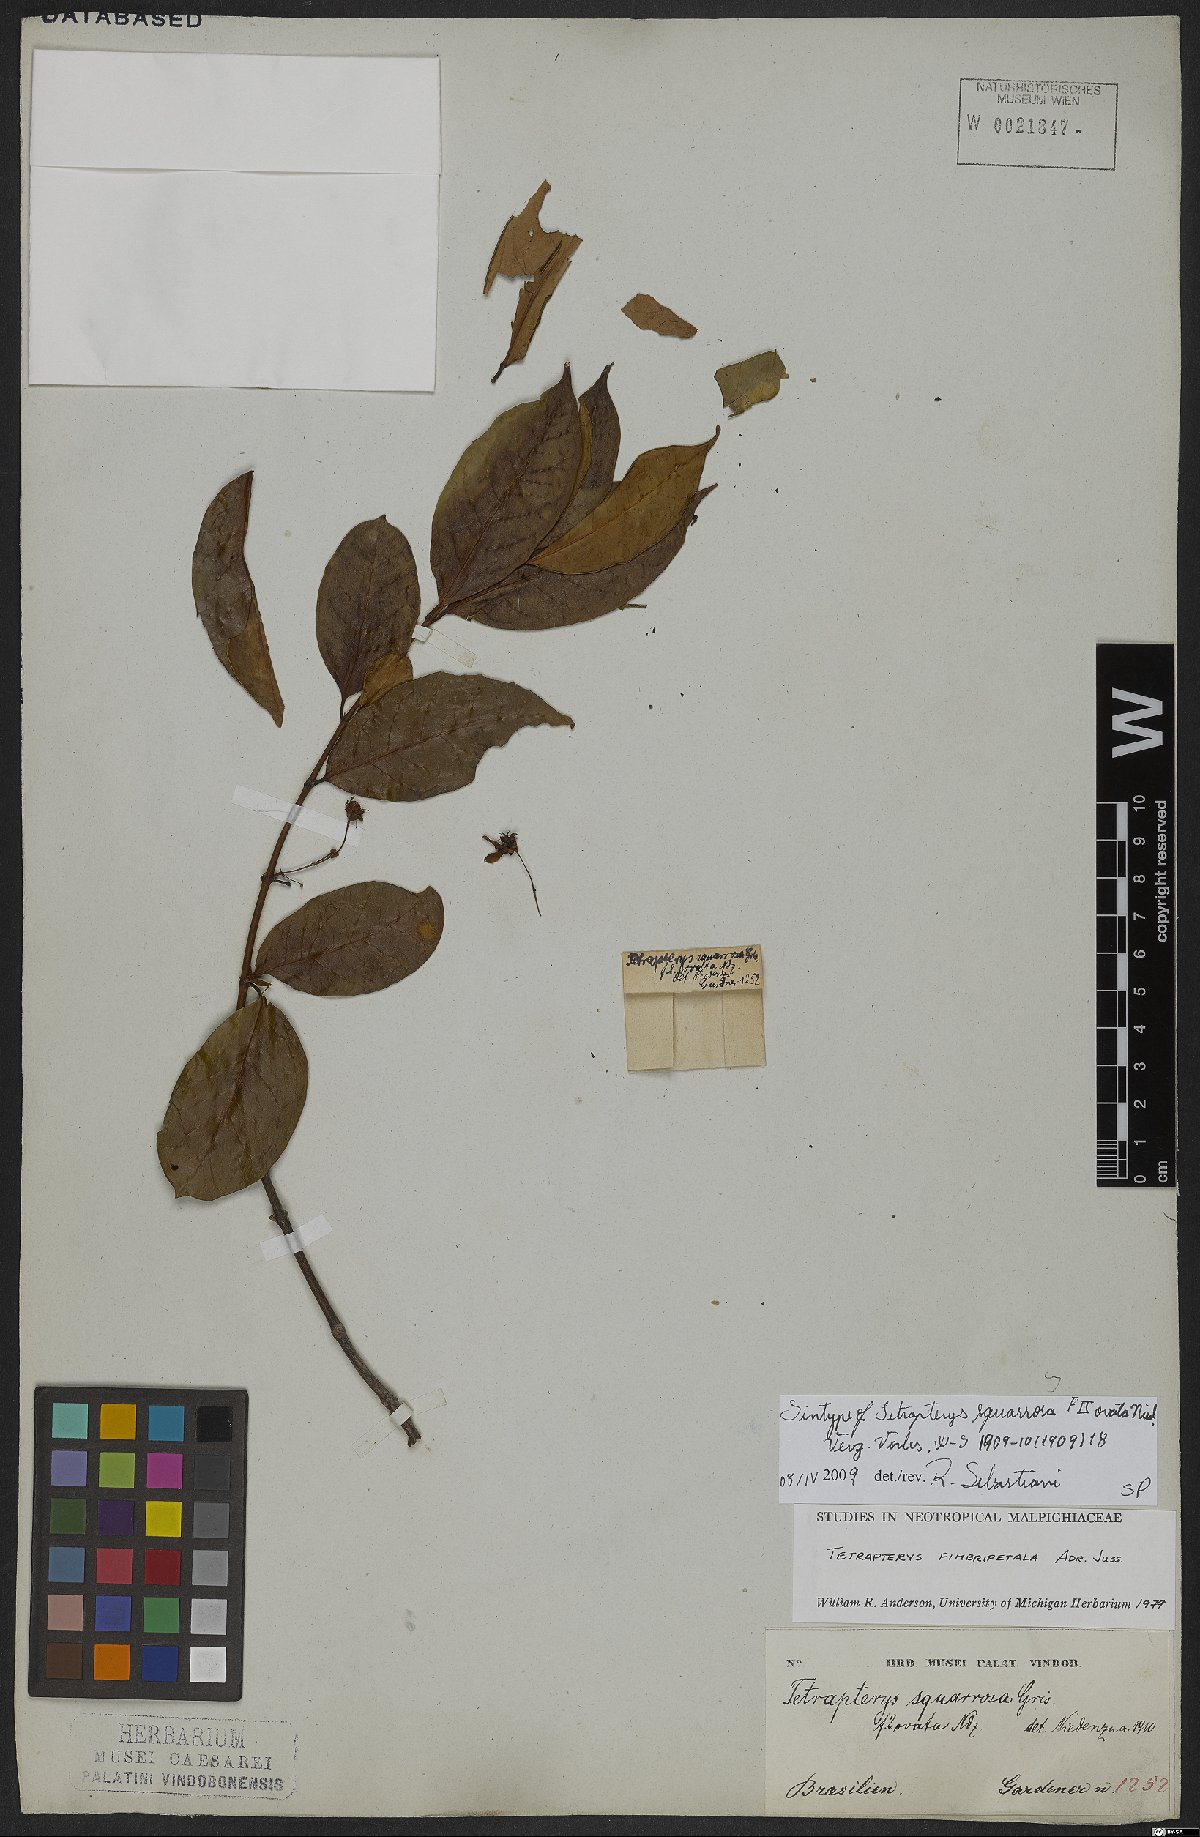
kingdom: Plantae
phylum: Tracheophyta
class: Magnoliopsida
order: Malpighiales
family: Malpighiaceae
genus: Glicophyllum
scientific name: Glicophyllum fimbripetalum
